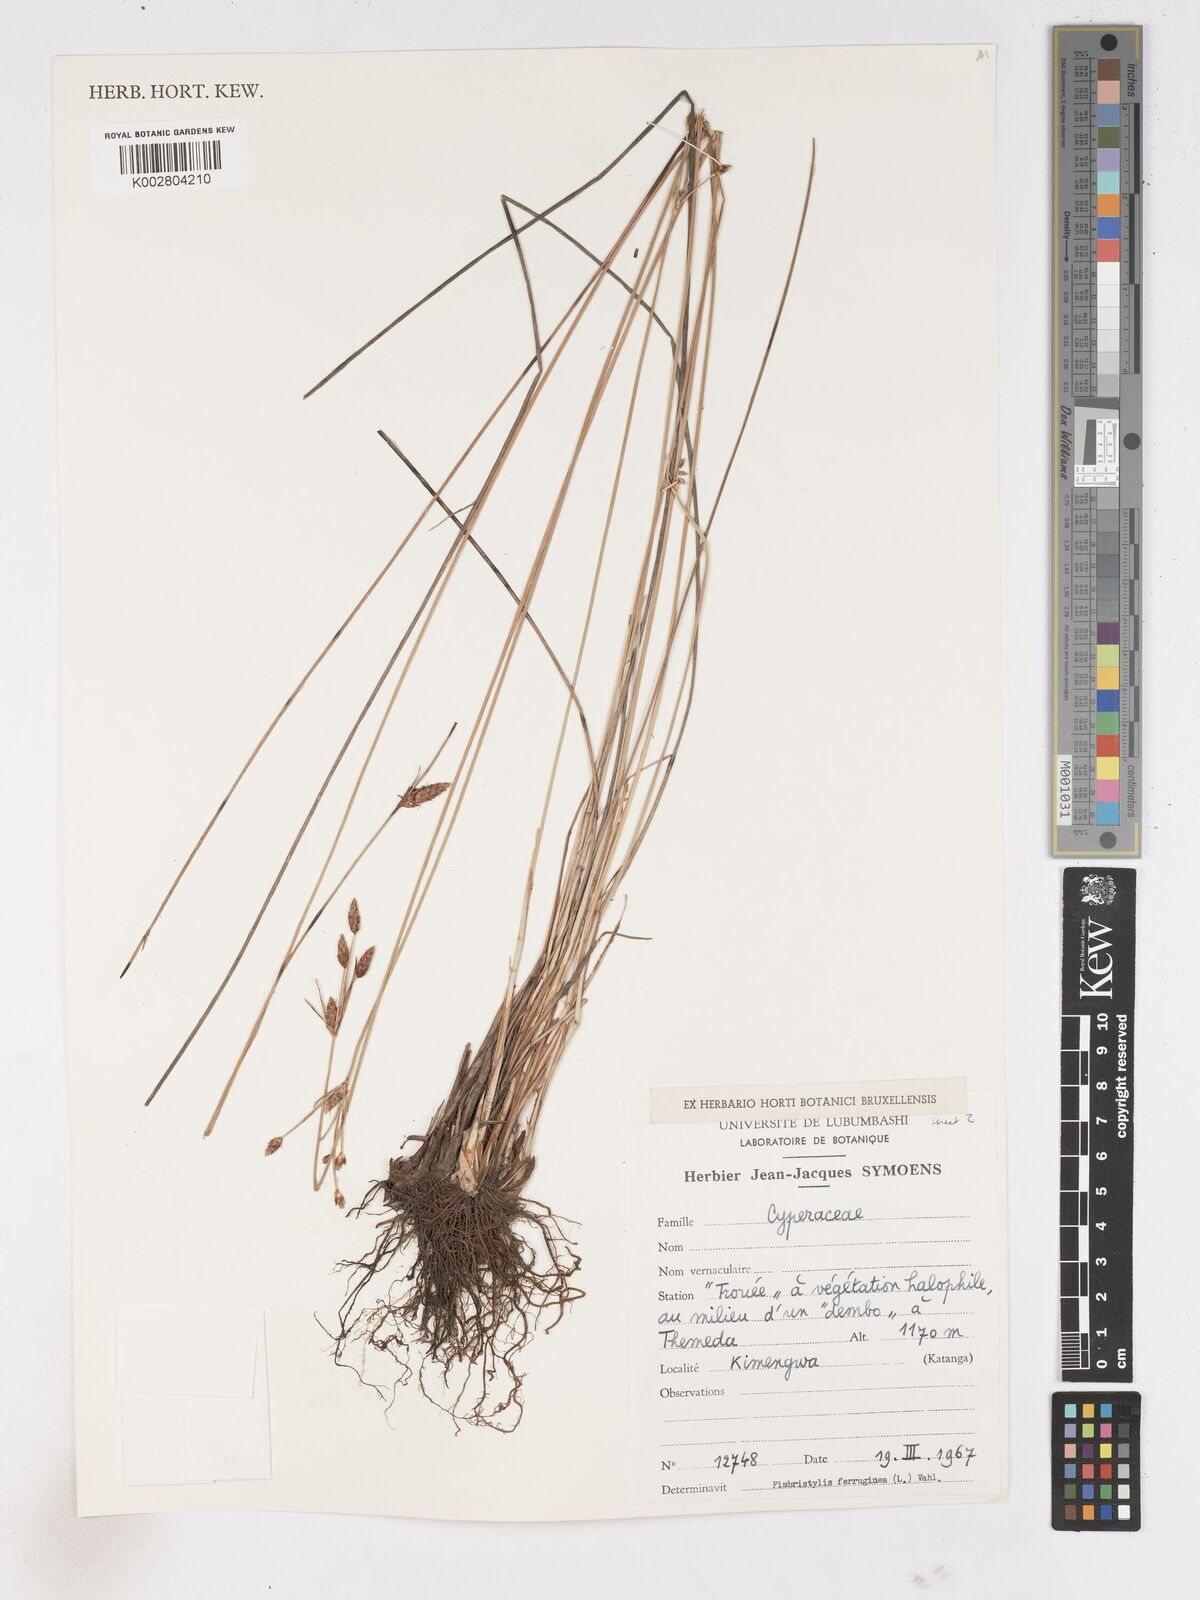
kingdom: Plantae
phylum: Tracheophyta
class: Liliopsida
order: Poales
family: Cyperaceae
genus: Fimbristylis
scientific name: Fimbristylis ferruginea
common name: West indian fimbry
